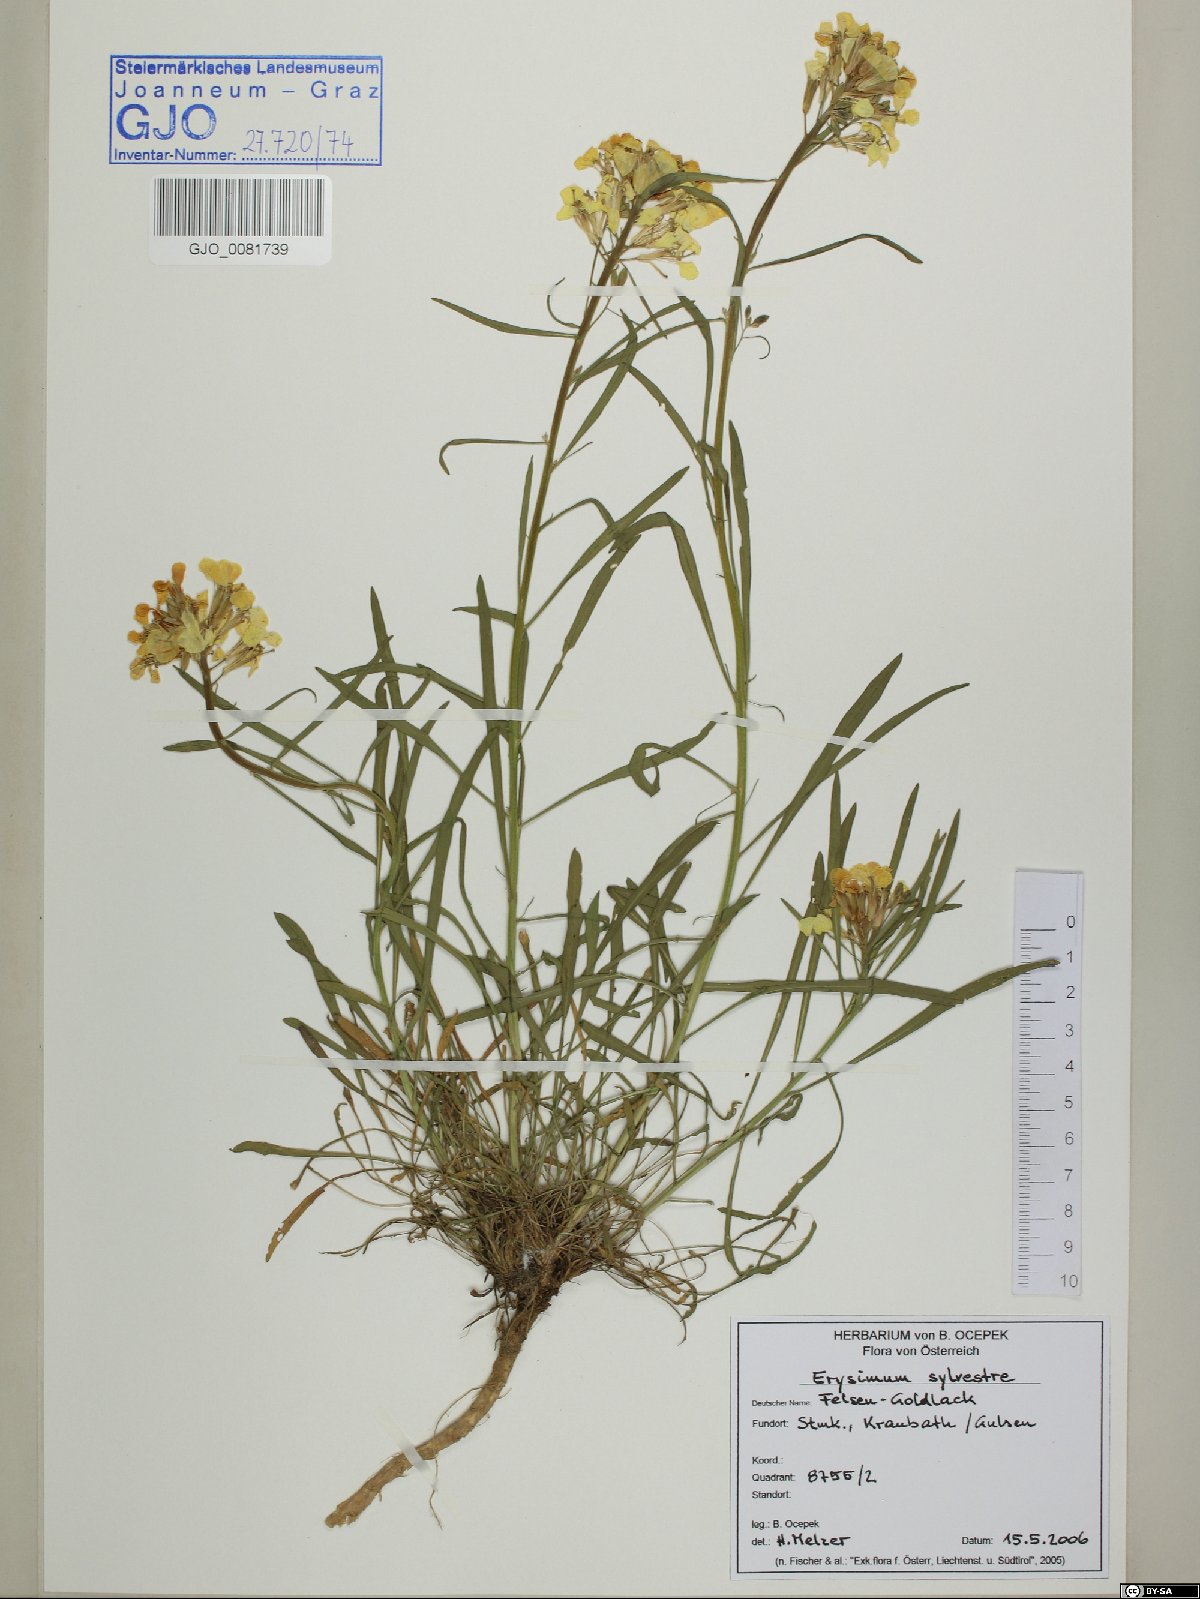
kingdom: Plantae
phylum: Tracheophyta
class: Magnoliopsida
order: Brassicales
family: Brassicaceae
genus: Erysimum
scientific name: Erysimum sylvestre
